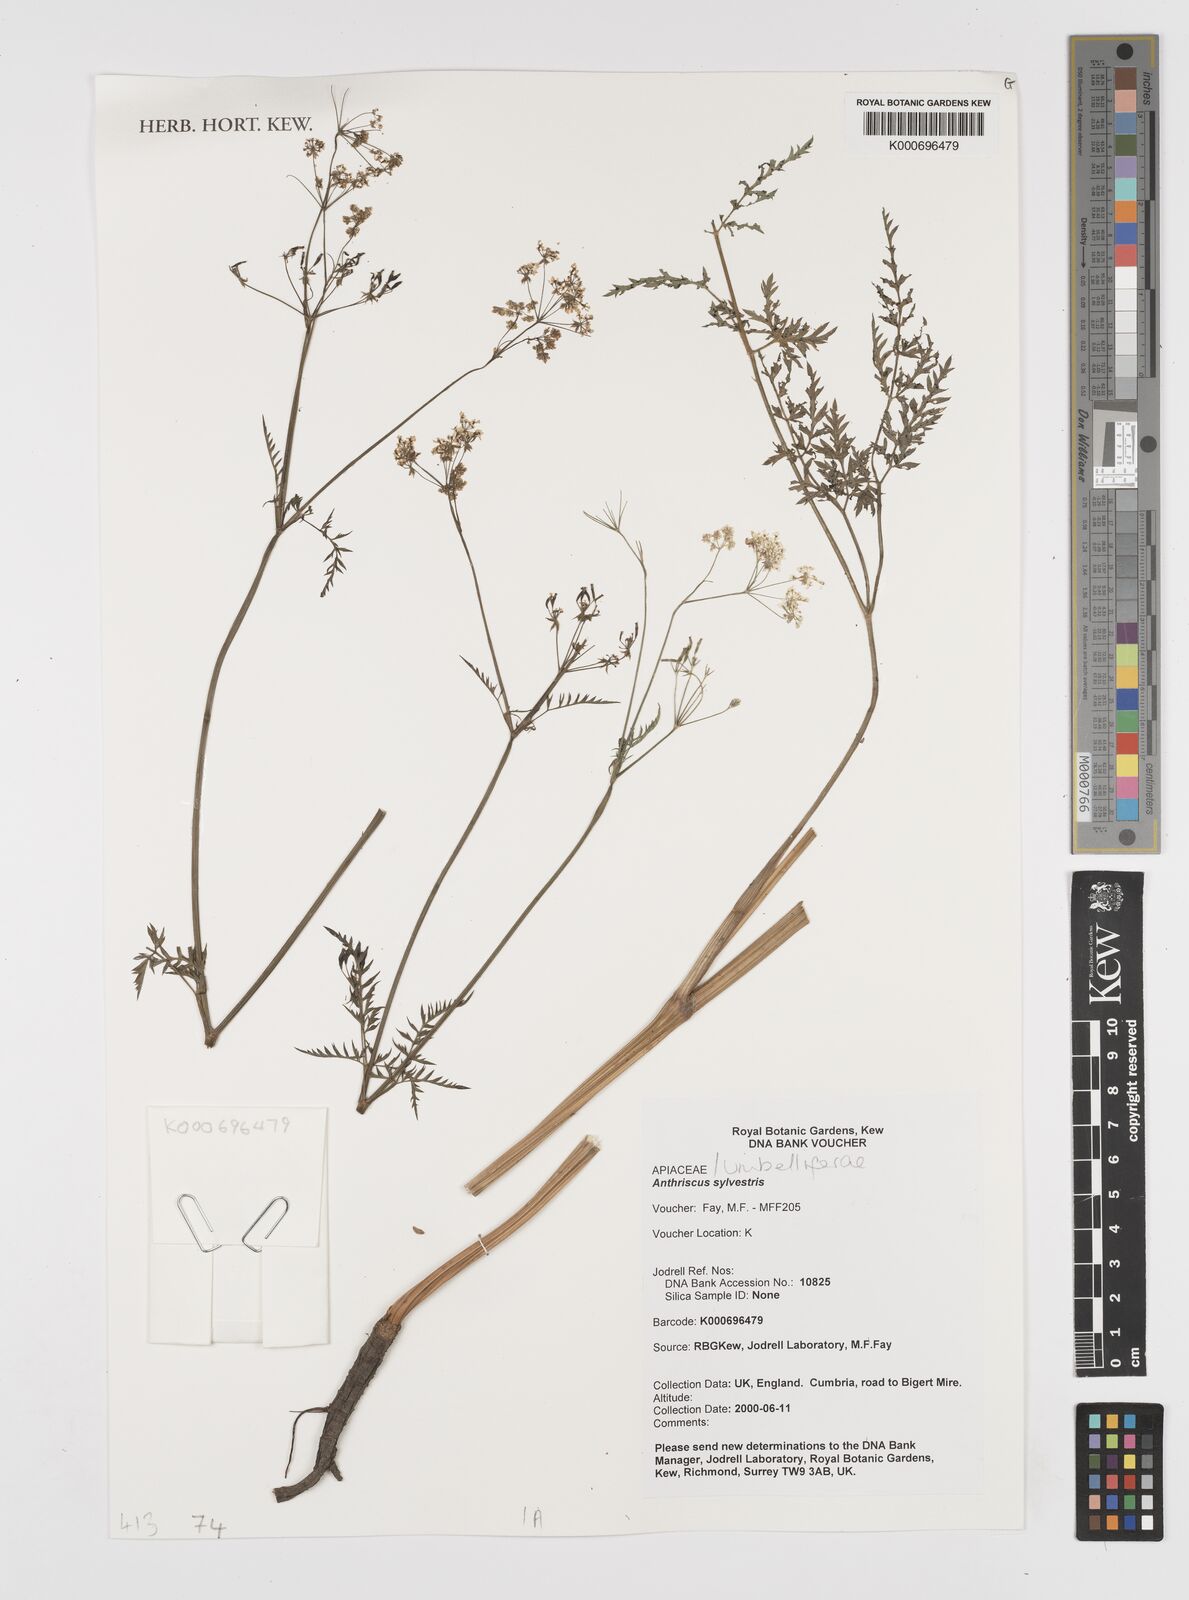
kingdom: Plantae
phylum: Tracheophyta
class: Magnoliopsida
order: Apiales
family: Apiaceae
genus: Anthriscus
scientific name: Anthriscus sylvestris
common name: Cow parsley
